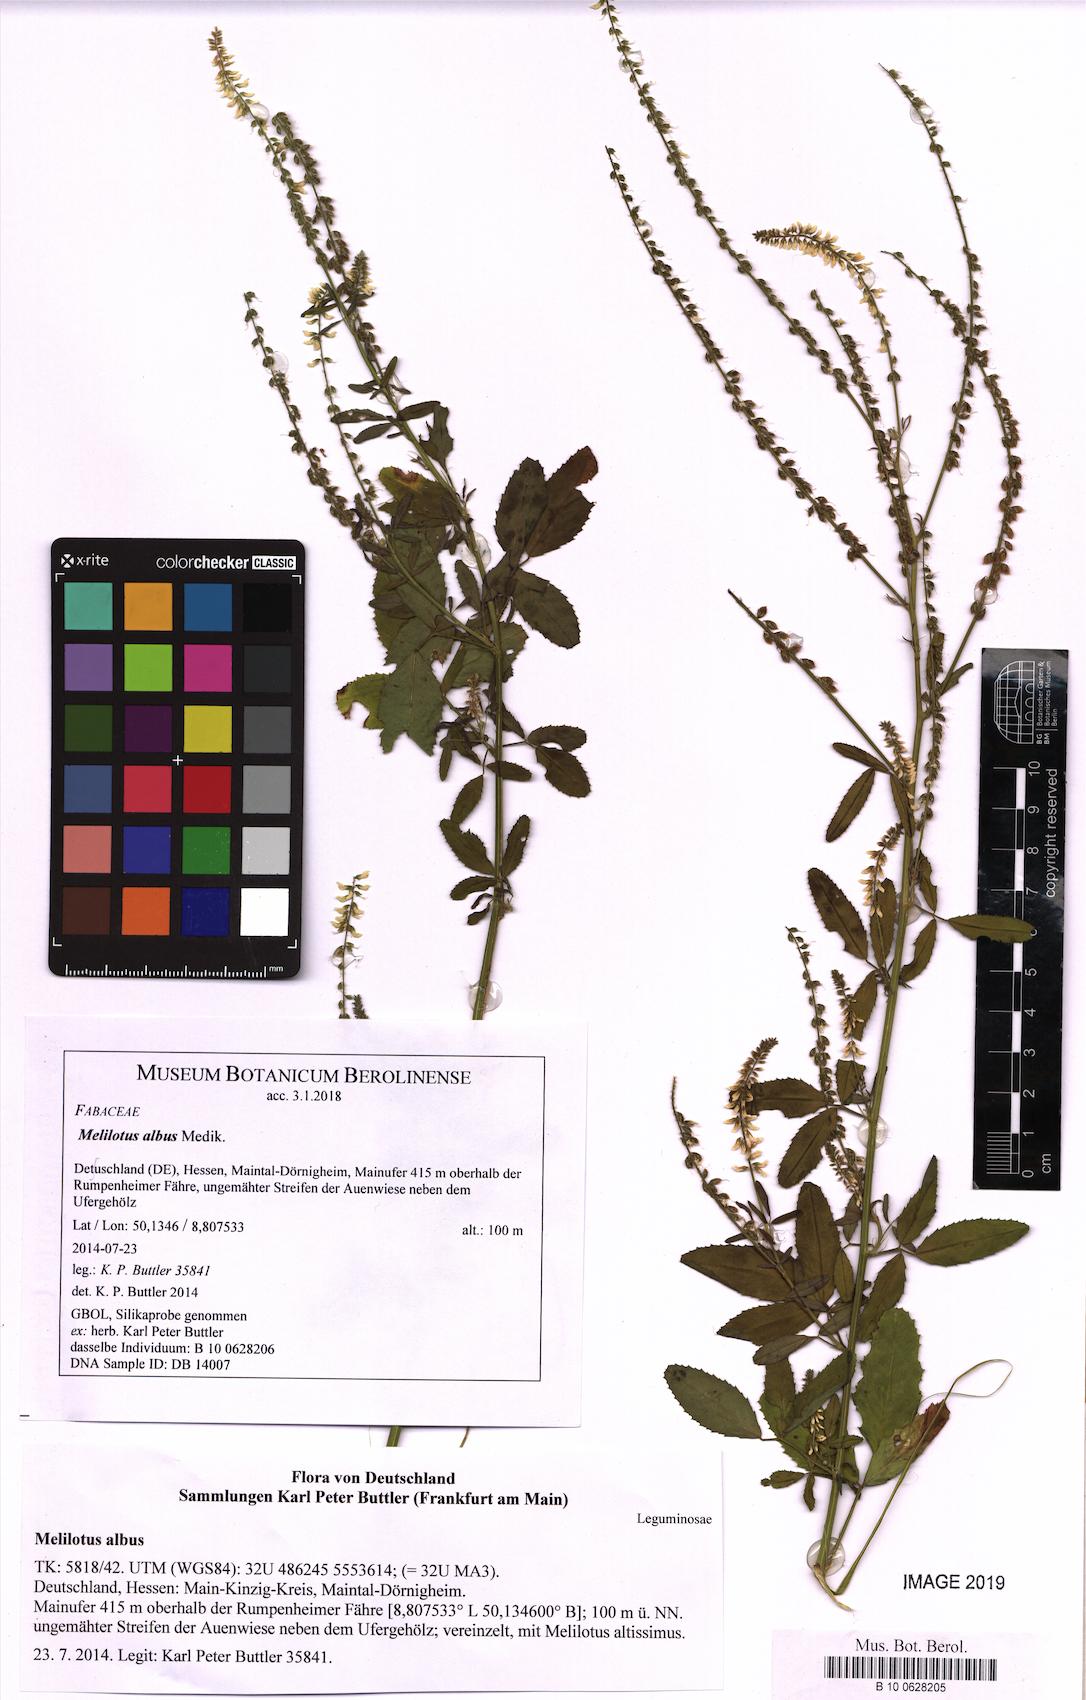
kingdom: Plantae
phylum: Tracheophyta
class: Magnoliopsida
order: Fabales
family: Fabaceae
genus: Melilotus
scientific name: Melilotus albus
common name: White melilot
